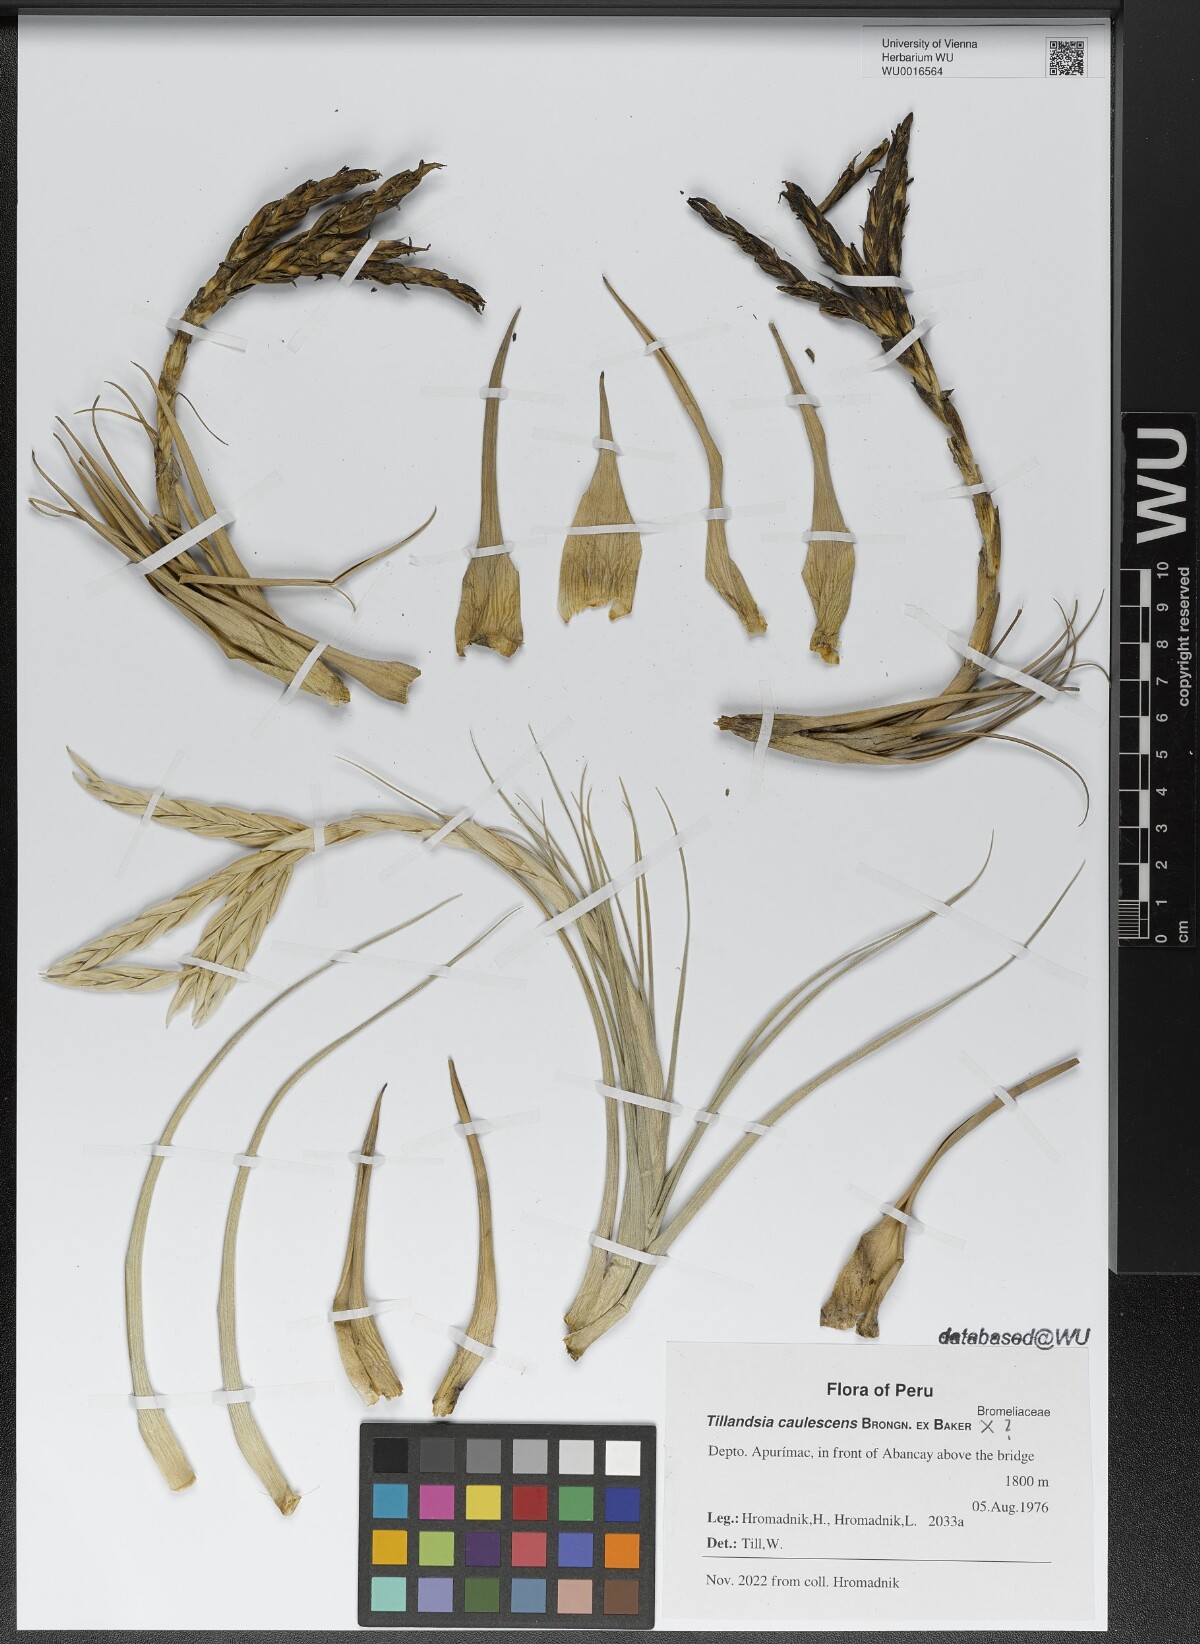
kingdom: Plantae
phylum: Tracheophyta
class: Liliopsida
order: Poales
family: Bromeliaceae
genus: Tillandsia
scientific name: Tillandsia caulescens
